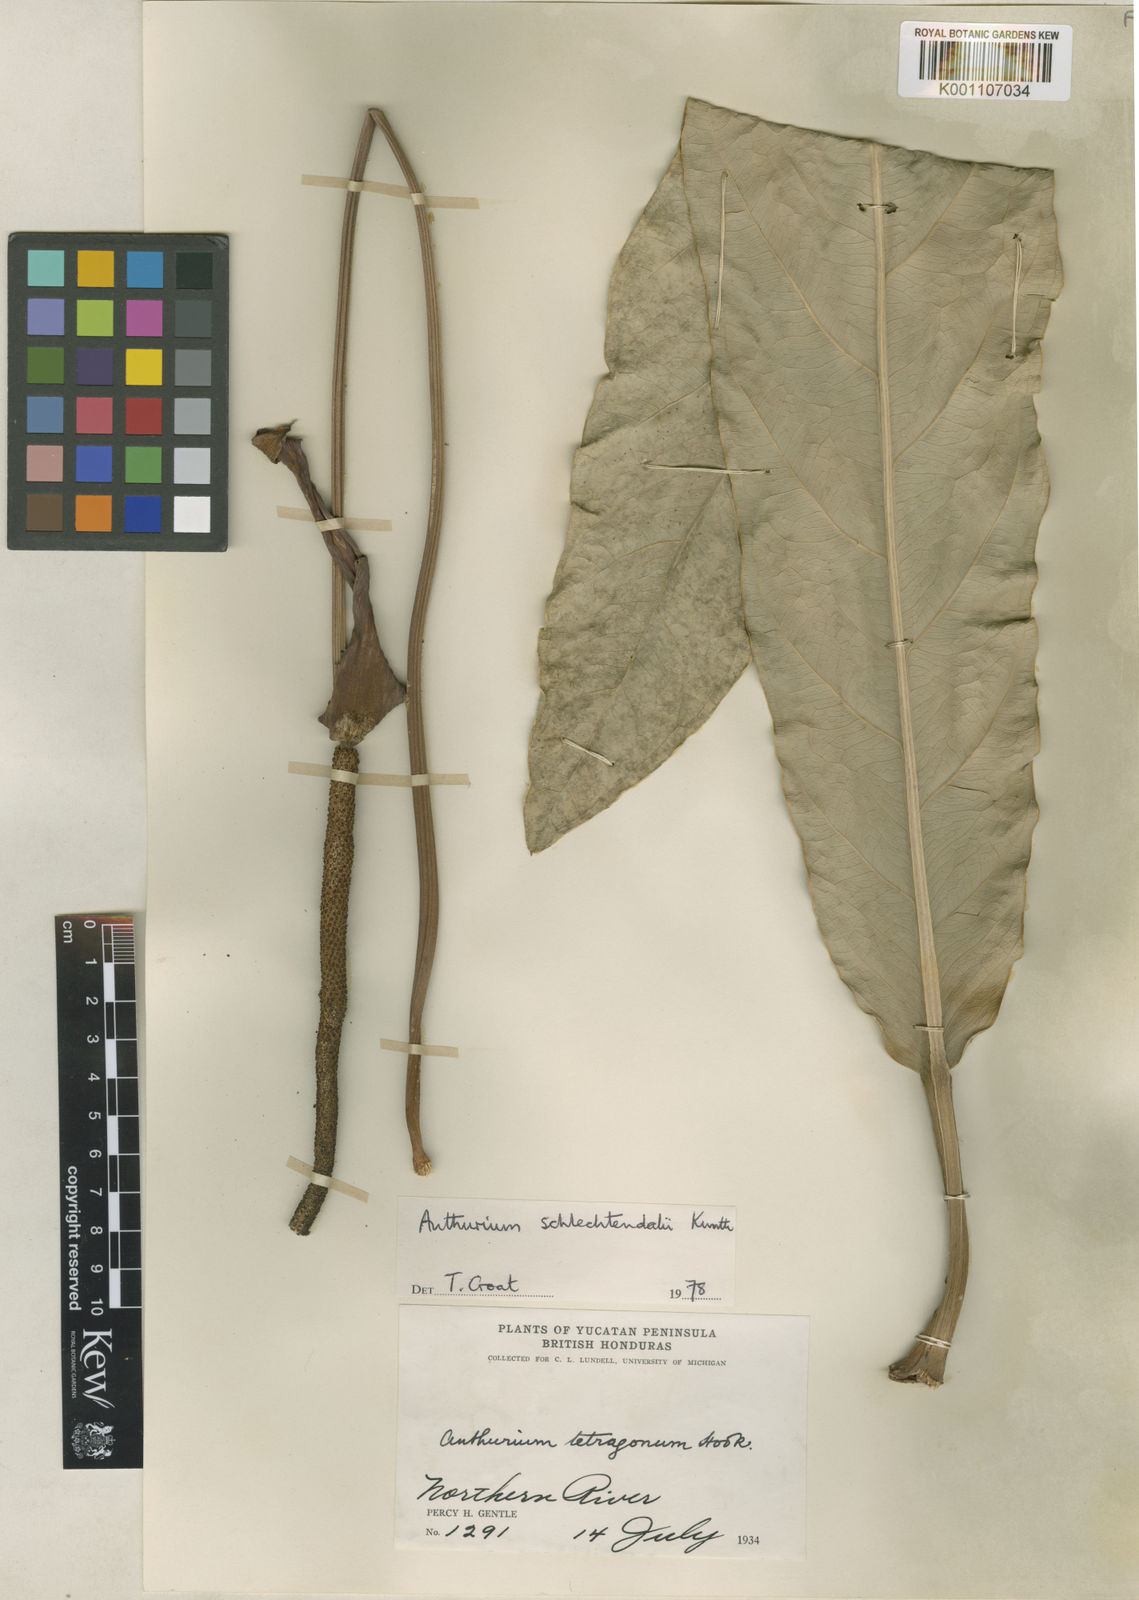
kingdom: Plantae
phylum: Tracheophyta
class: Liliopsida
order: Alismatales
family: Araceae
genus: Anthurium
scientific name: Anthurium schlechtendalii
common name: Laceleaf
